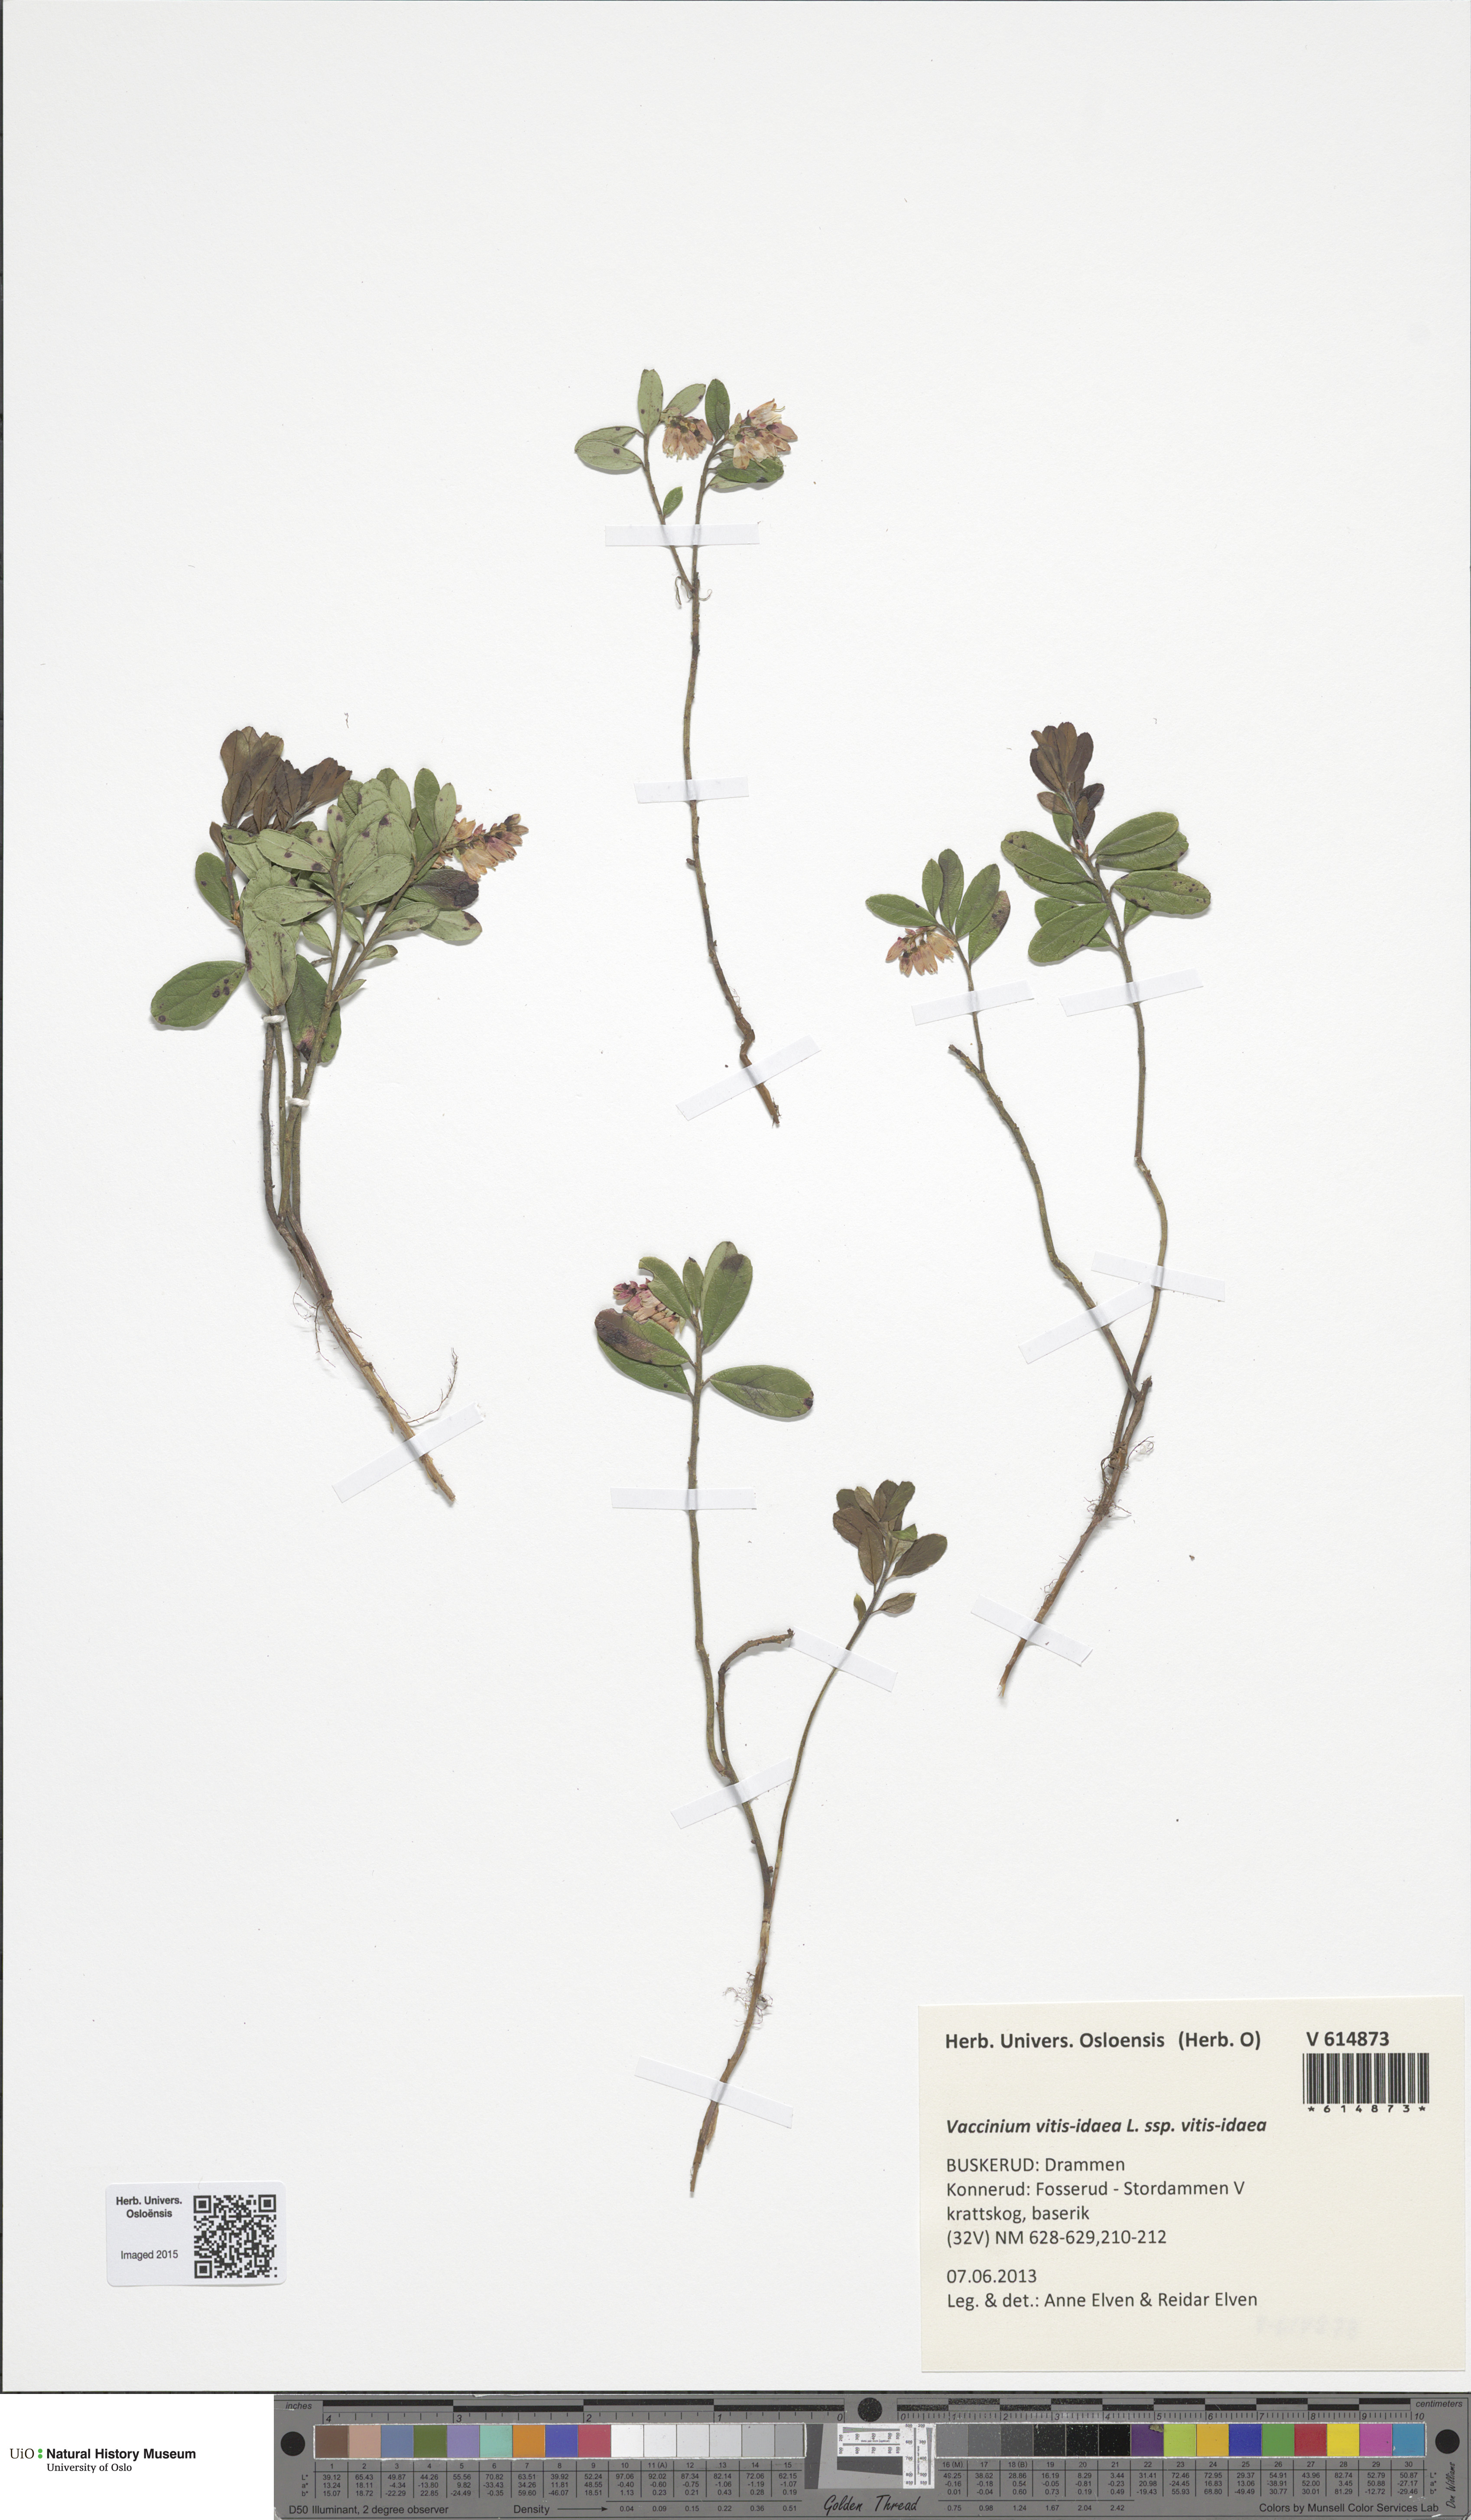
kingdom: Plantae
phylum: Tracheophyta
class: Magnoliopsida
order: Ericales
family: Ericaceae
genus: Vaccinium
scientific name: Vaccinium vitis-idaea
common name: Cowberry
